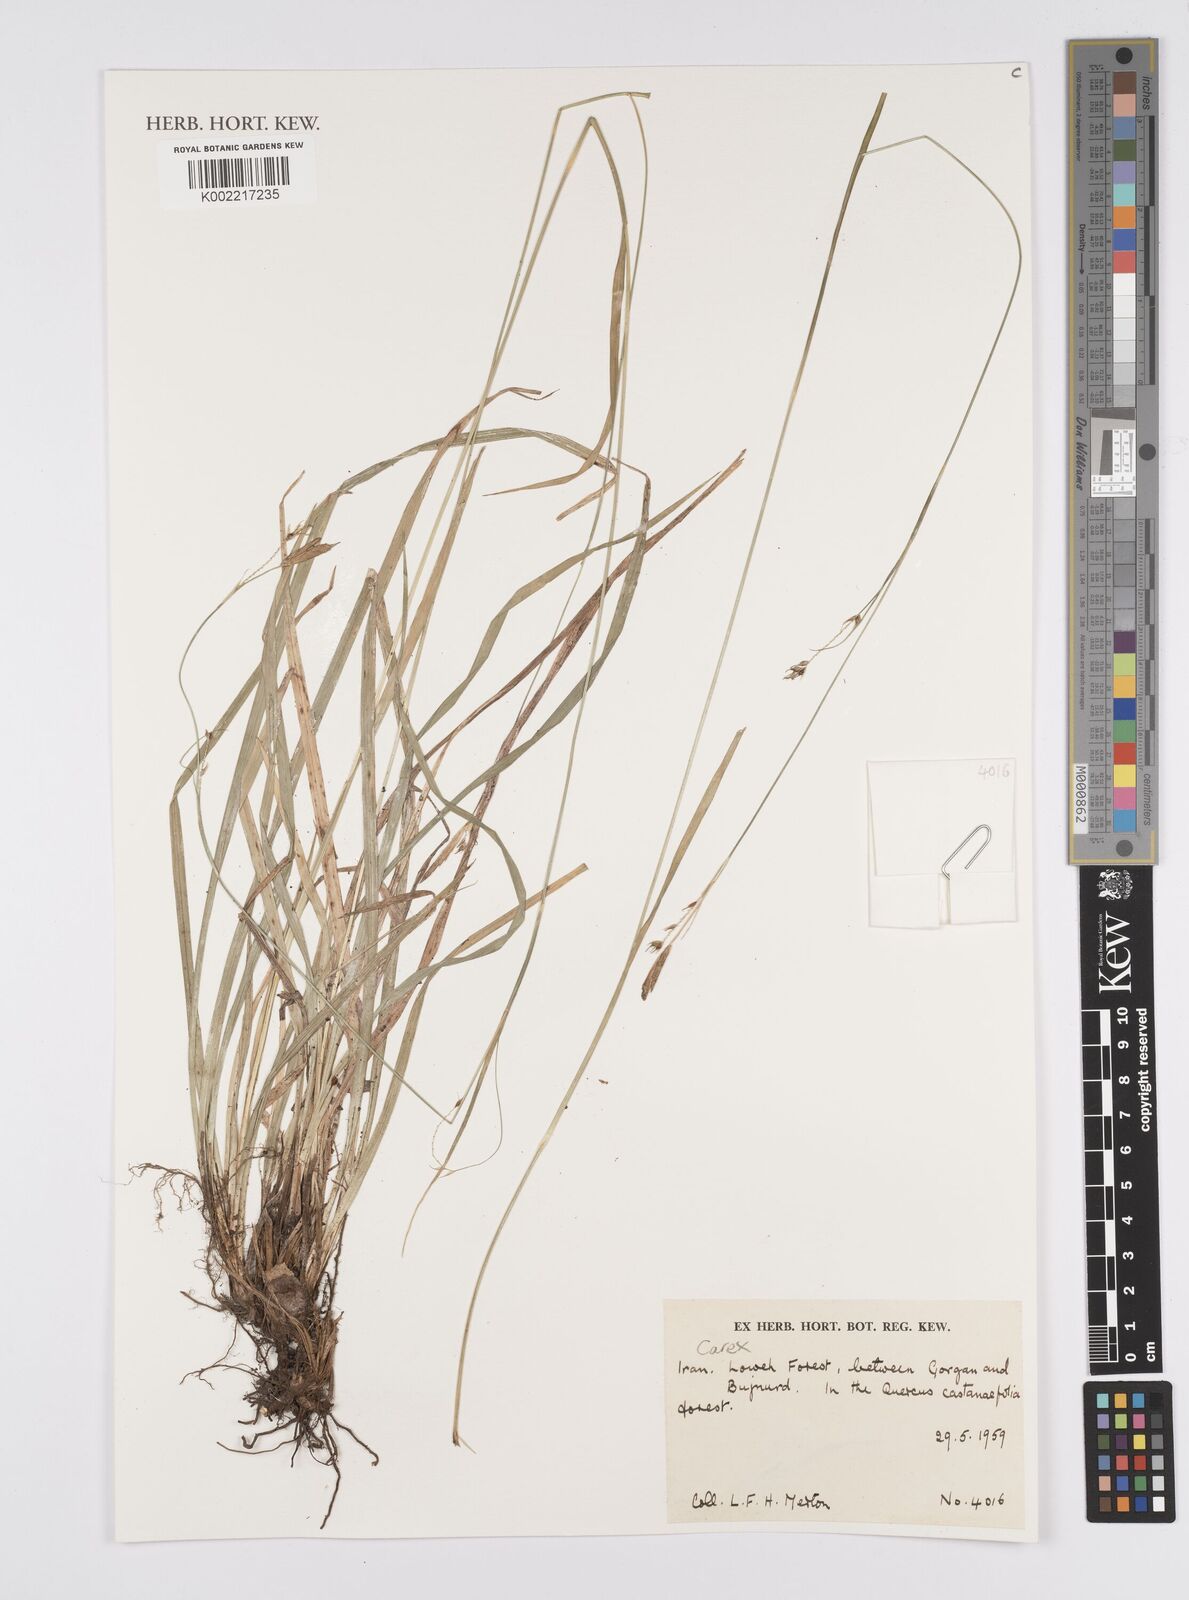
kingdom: Plantae
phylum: Tracheophyta
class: Liliopsida
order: Poales
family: Cyperaceae
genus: Carex
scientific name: Carex
